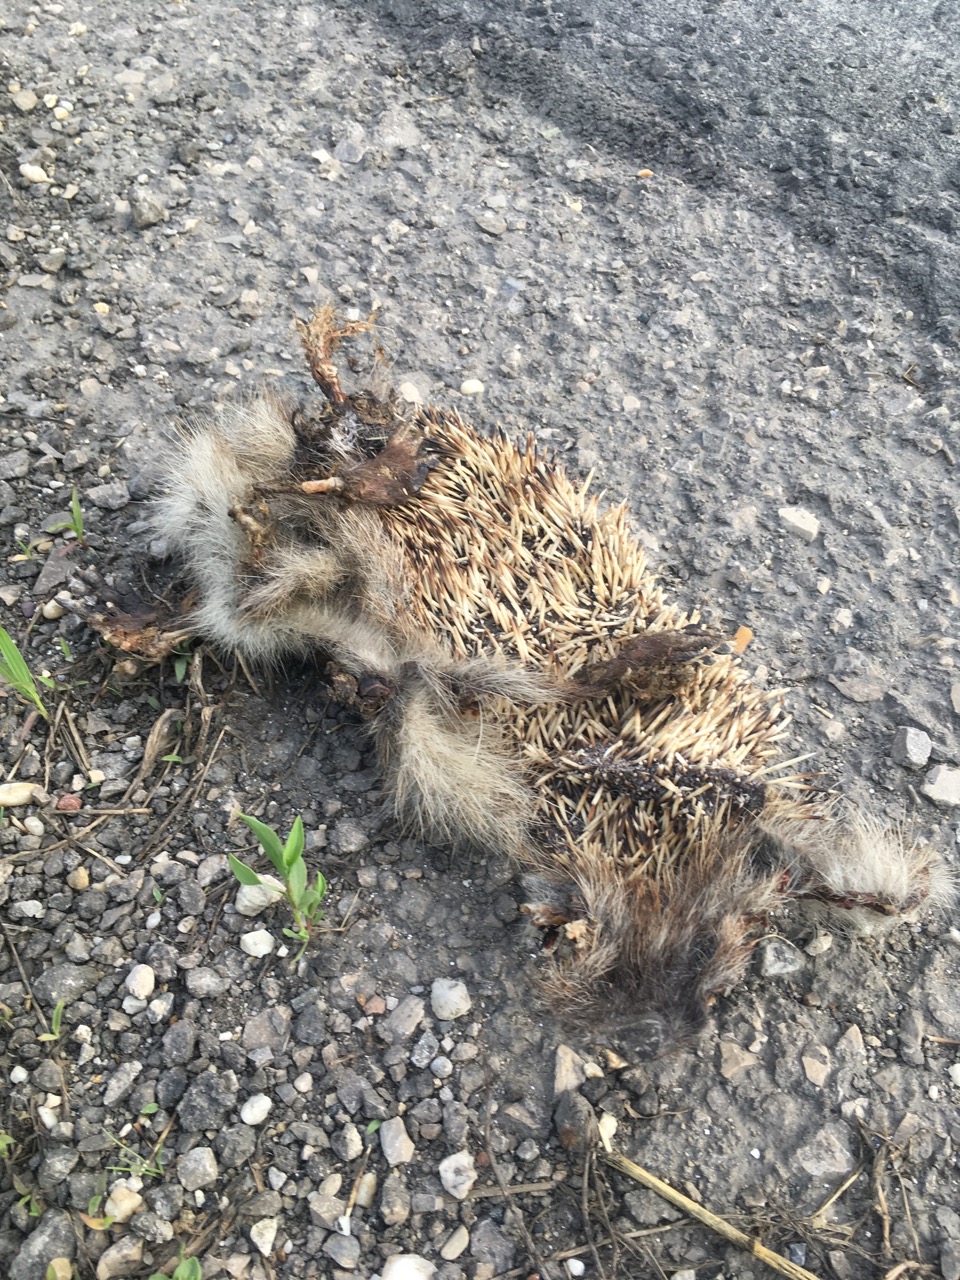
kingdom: Animalia
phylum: Chordata
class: Mammalia
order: Erinaceomorpha
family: Erinaceidae
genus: Erinaceus
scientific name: Erinaceus
